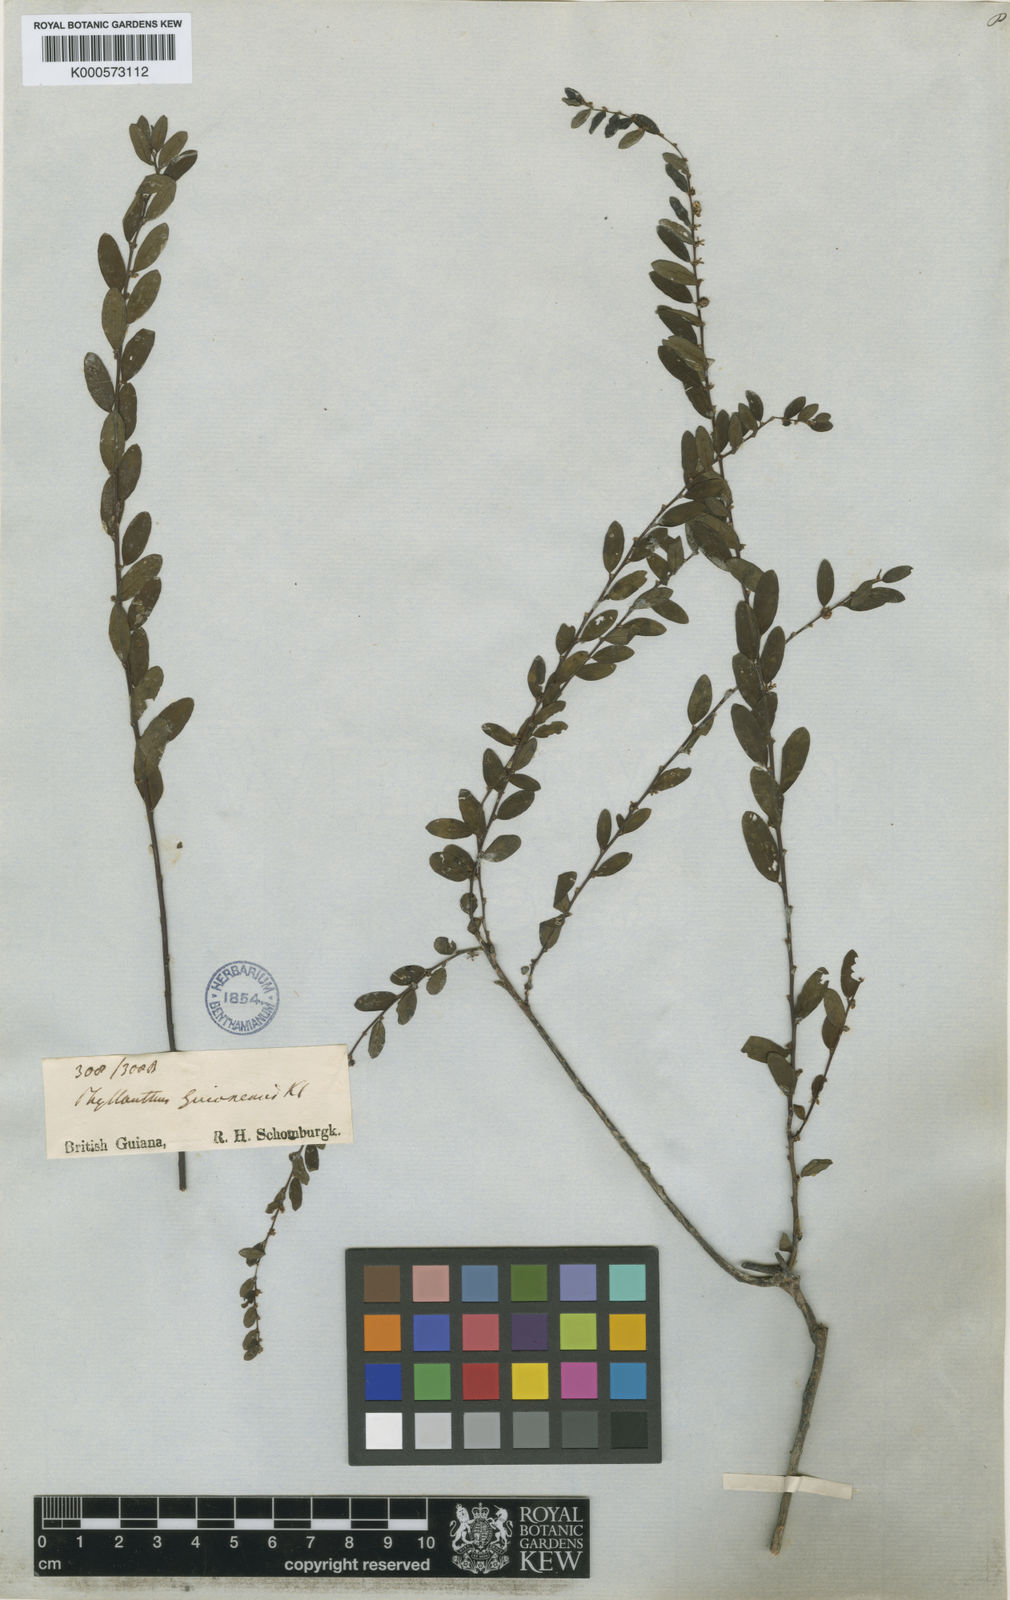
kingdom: Plantae
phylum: Tracheophyta
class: Magnoliopsida
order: Malpighiales
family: Phyllanthaceae
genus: Phyllanthus
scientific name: Phyllanthus caroliniensis
